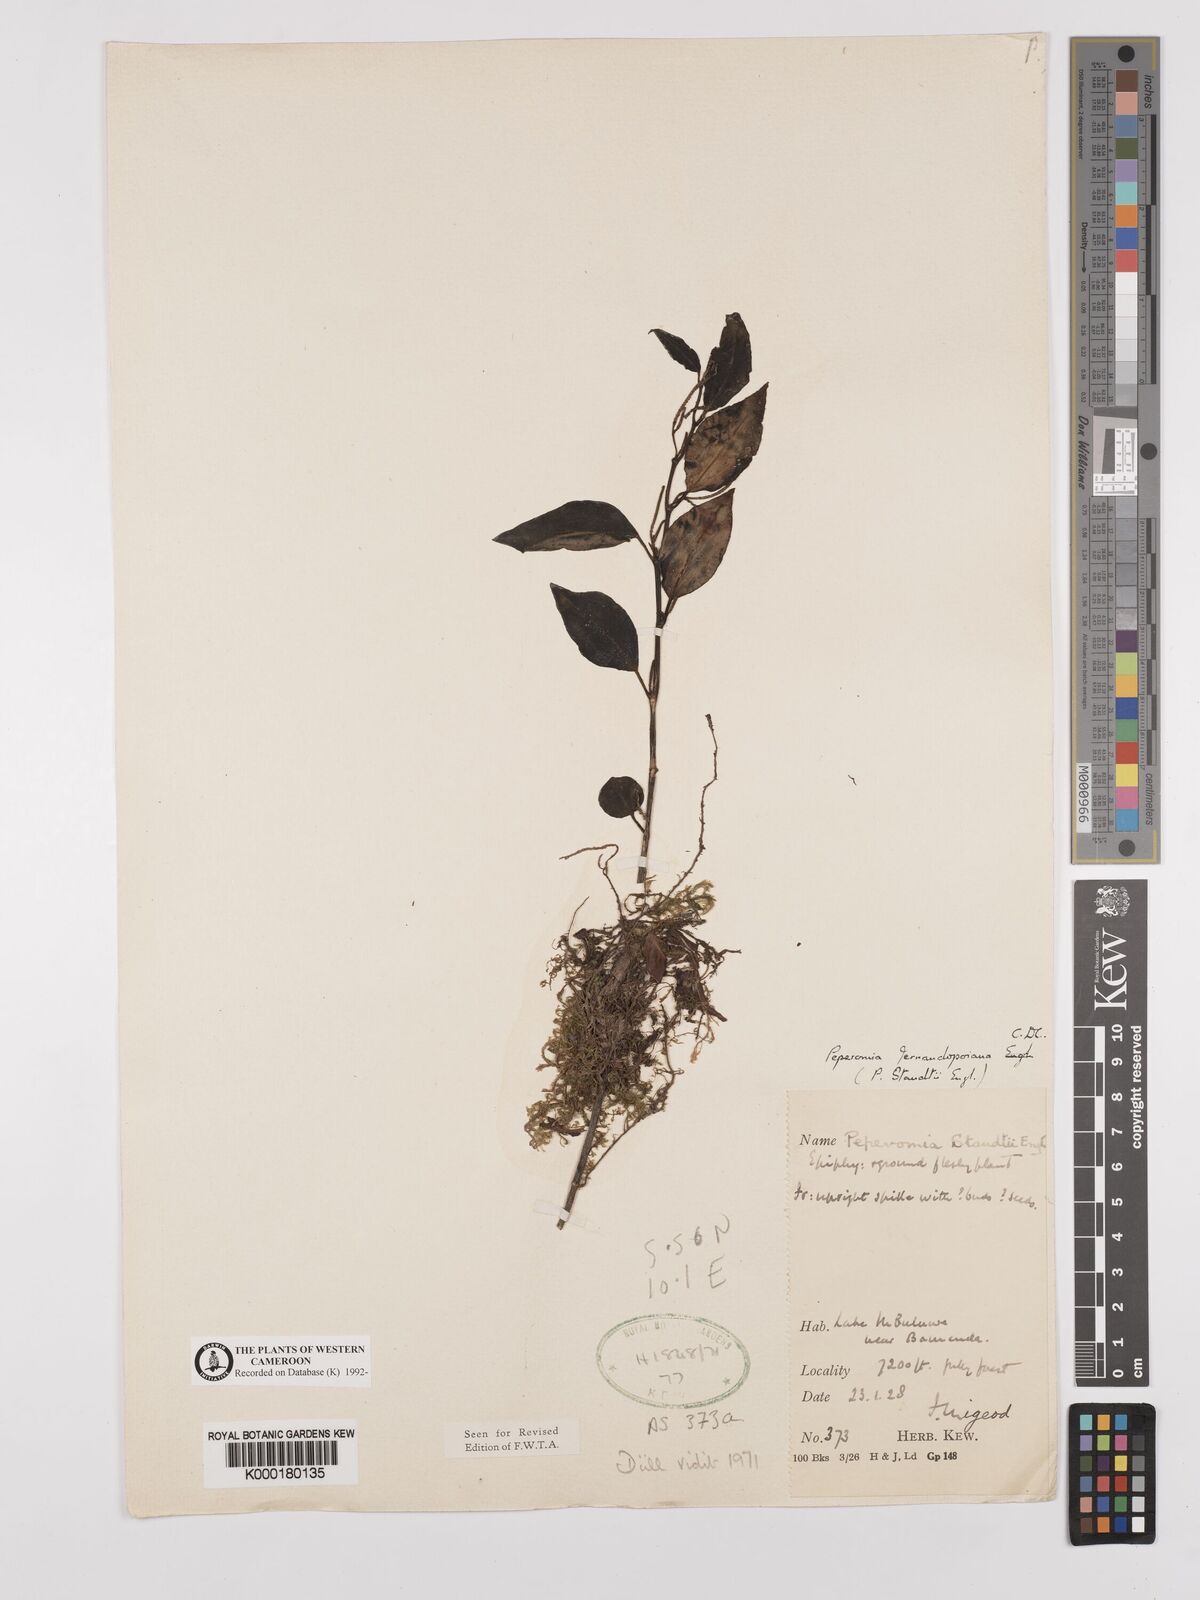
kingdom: Plantae
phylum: Tracheophyta
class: Magnoliopsida
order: Piperales
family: Piperaceae
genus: Peperomia
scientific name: Peperomia fernandopoiana
